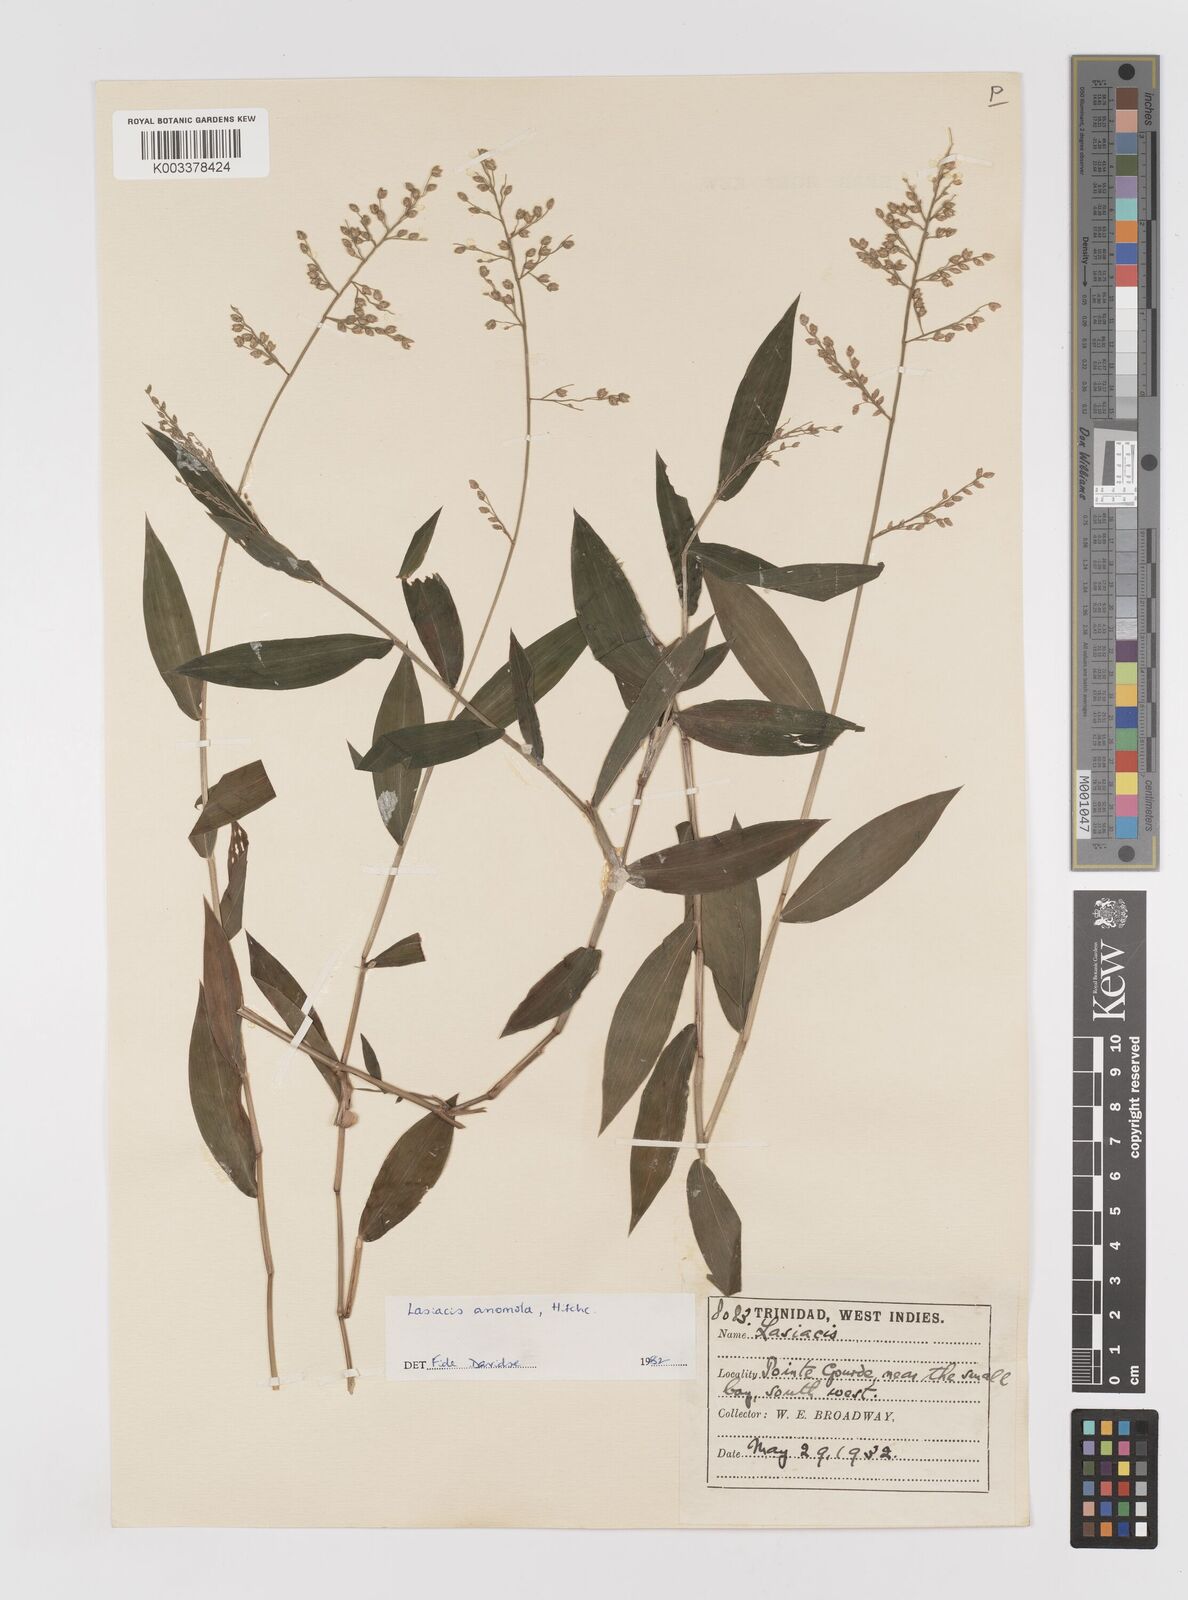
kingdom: Plantae
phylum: Tracheophyta
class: Liliopsida
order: Poales
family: Poaceae
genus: Lasiacis
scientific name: Lasiacis anomala
